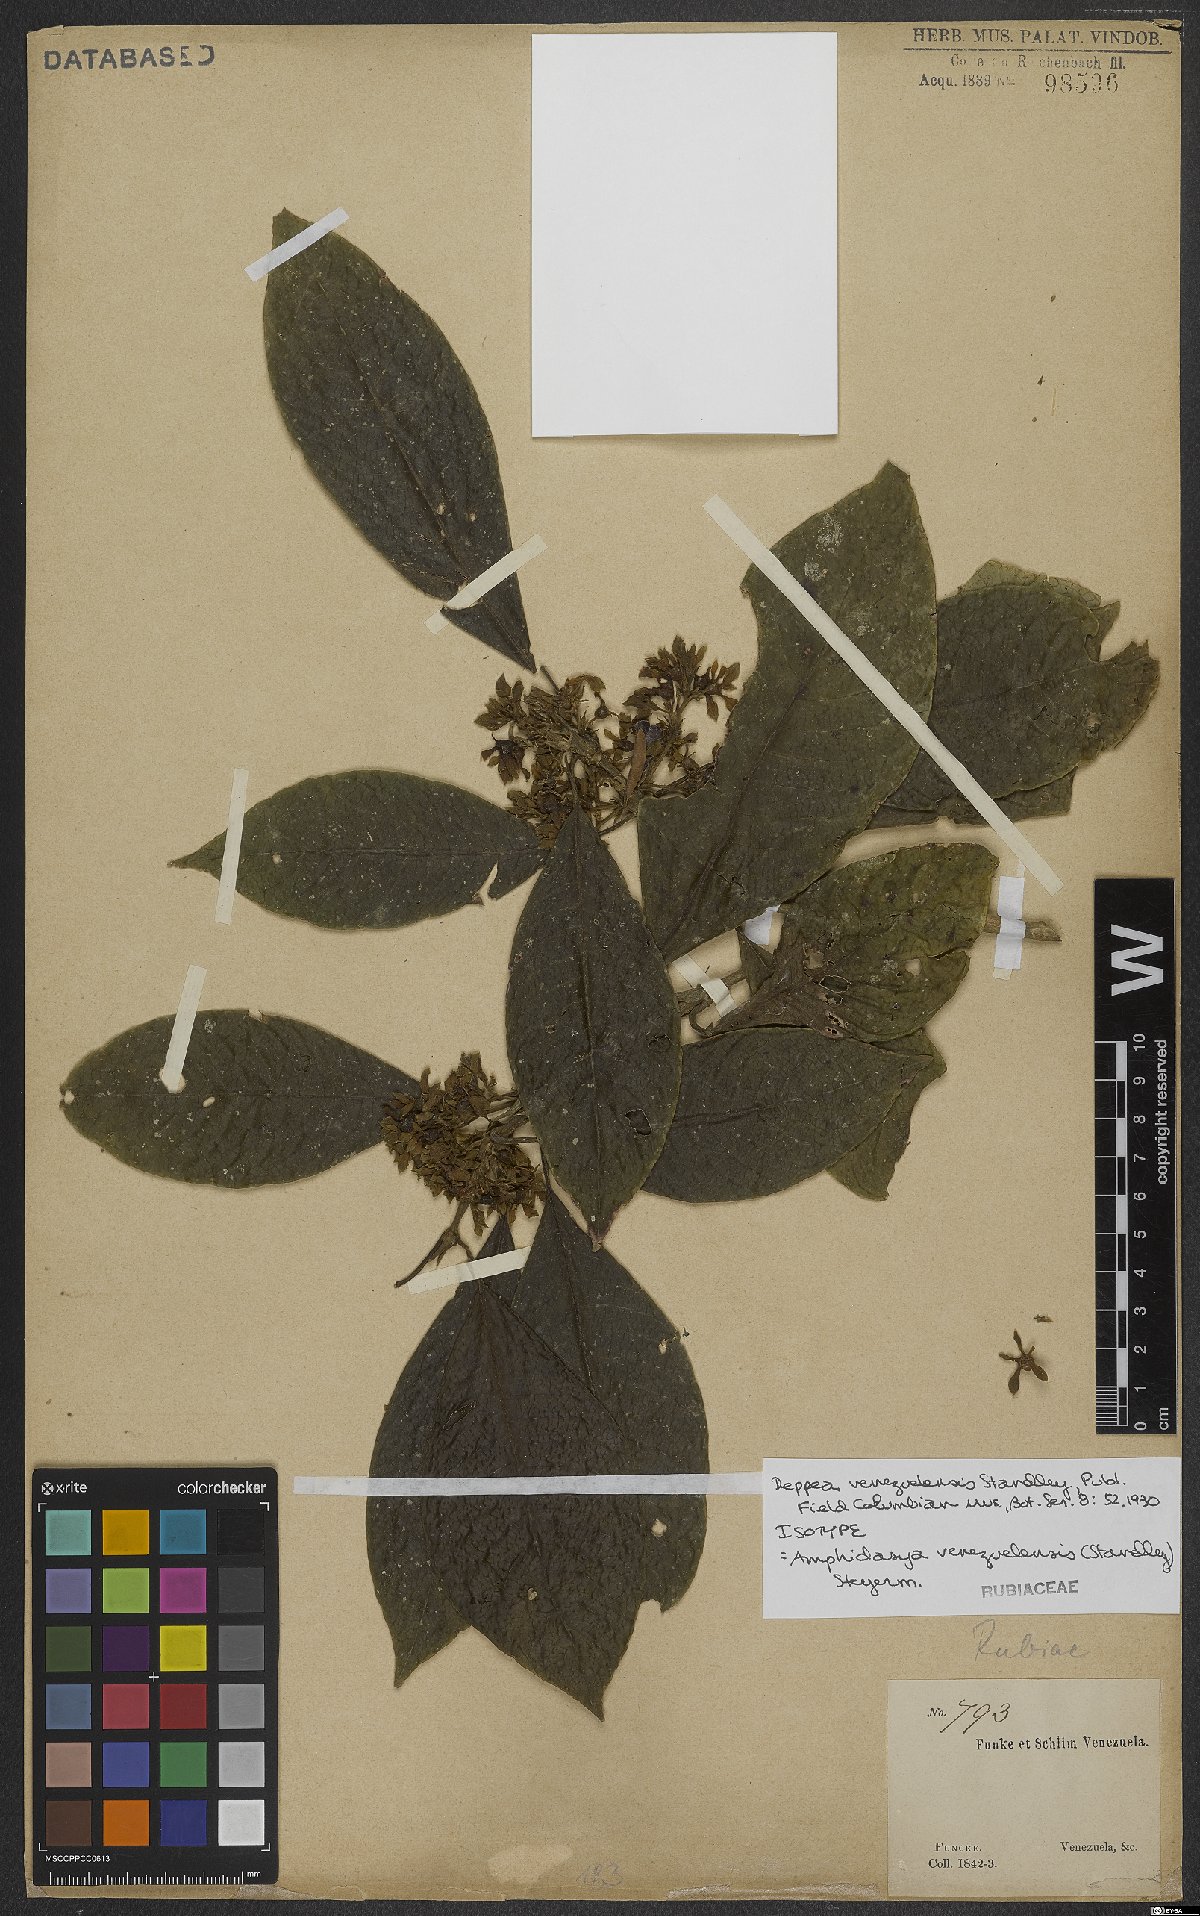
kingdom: Plantae
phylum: Tracheophyta
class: Magnoliopsida
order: Gentianales
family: Rubiaceae
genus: Amphidasya
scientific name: Amphidasya venezuelensis
